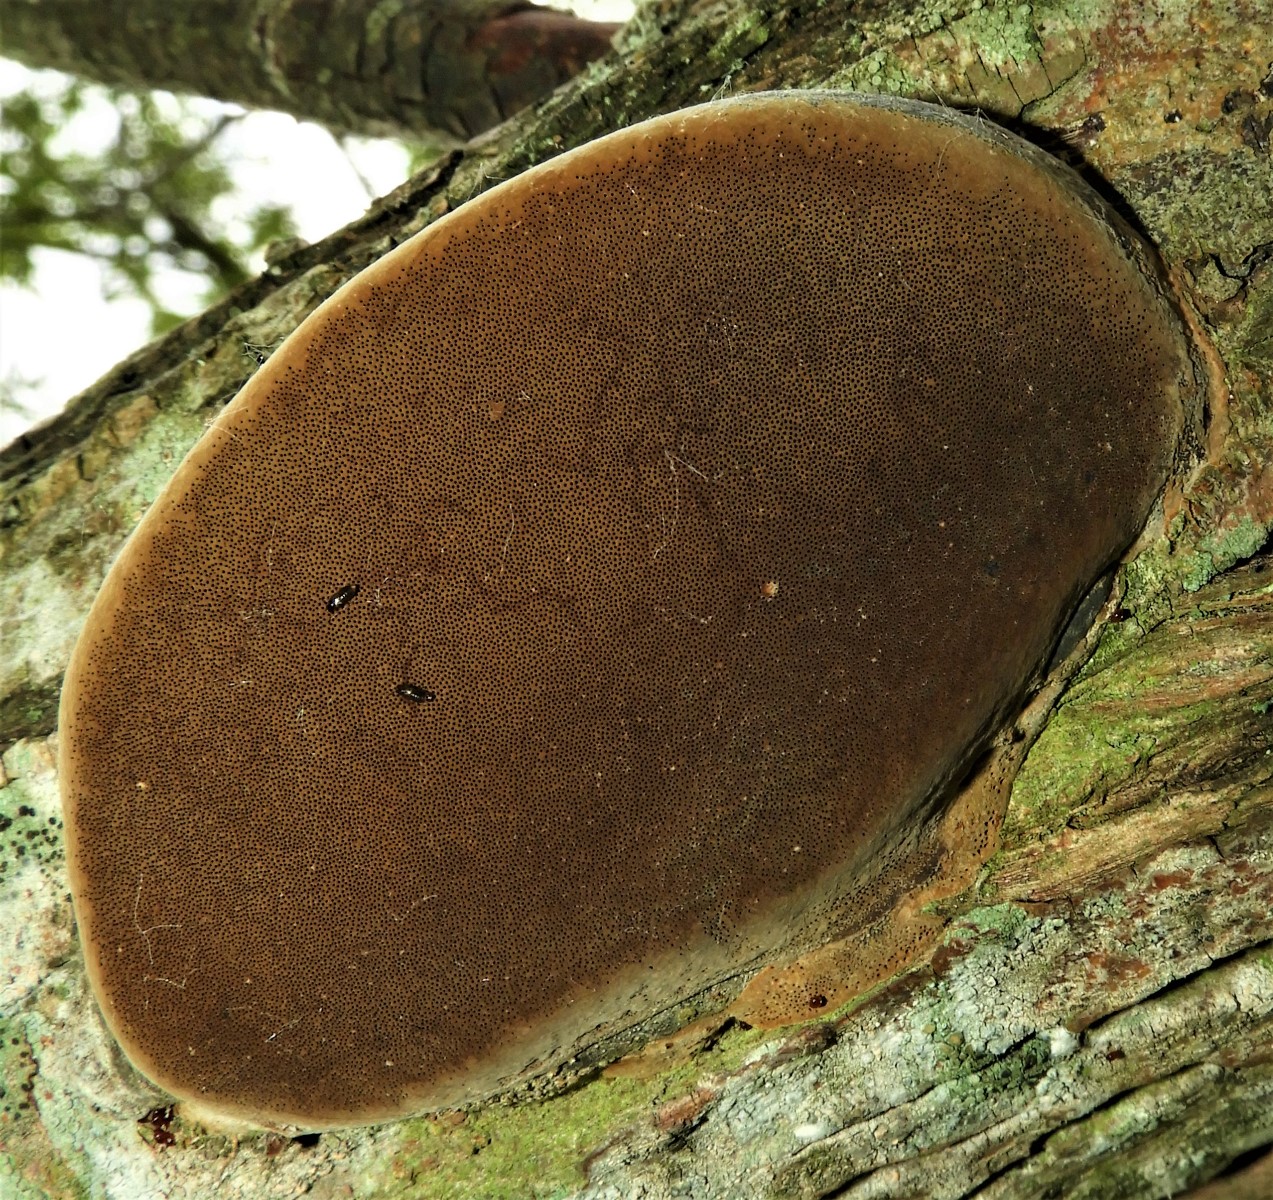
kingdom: Fungi
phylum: Basidiomycota
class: Agaricomycetes
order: Hymenochaetales
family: Hymenochaetaceae
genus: Phellinus
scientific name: Phellinus igniarius
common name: almindelig ildporesvamp
